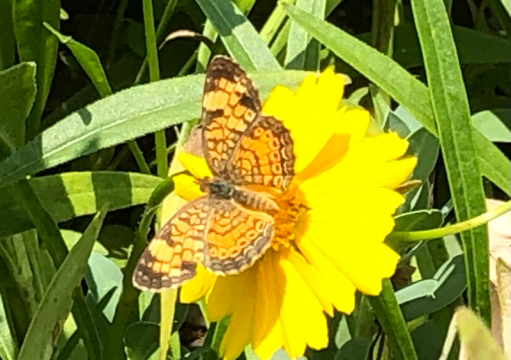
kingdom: Animalia
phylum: Arthropoda
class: Insecta
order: Lepidoptera
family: Nymphalidae
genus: Phyciodes
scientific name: Phyciodes tharos
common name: Pearl Crescent
